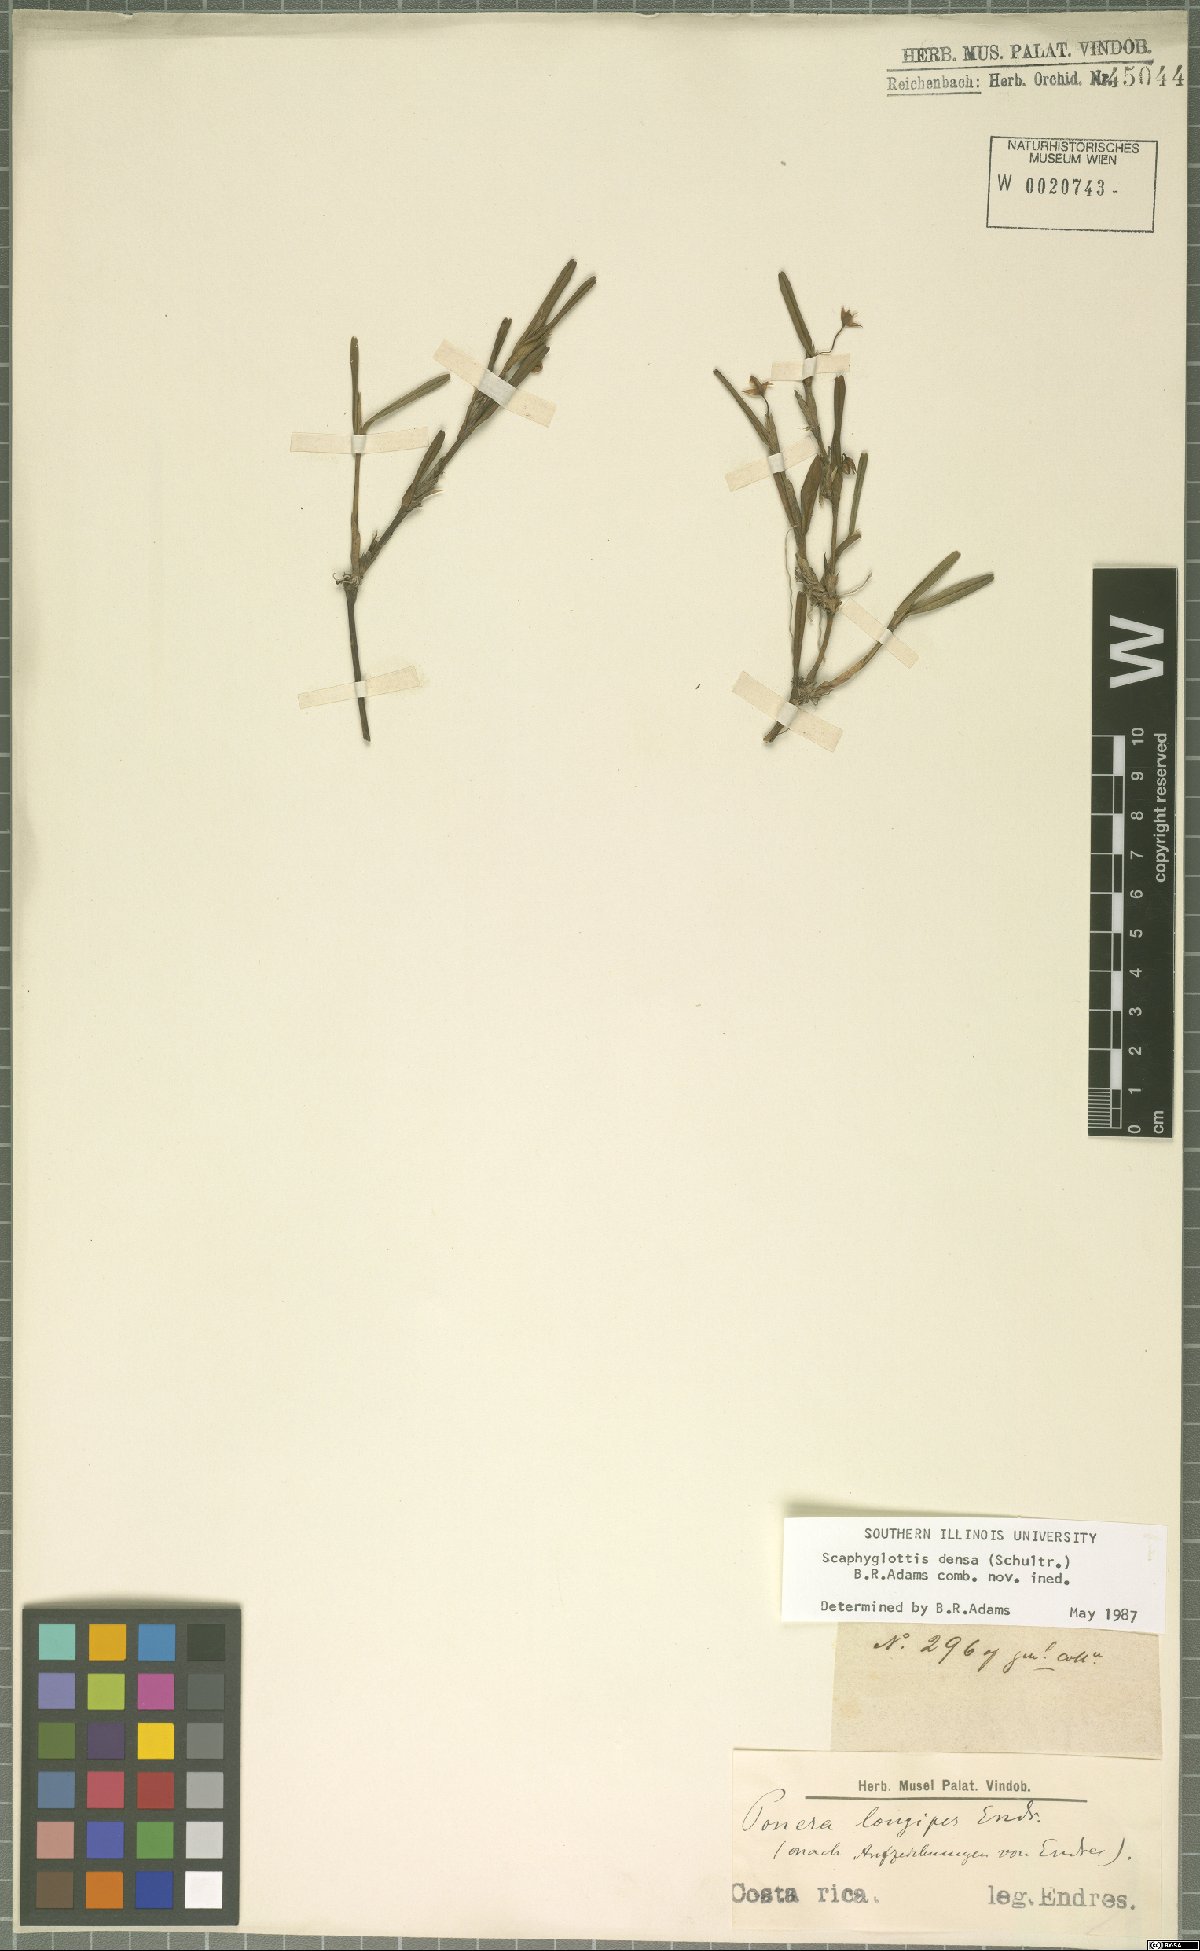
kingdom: Plantae
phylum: Tracheophyta
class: Liliopsida
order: Asparagales
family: Orchidaceae
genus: Scaphyglottis
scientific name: Scaphyglottis densa
